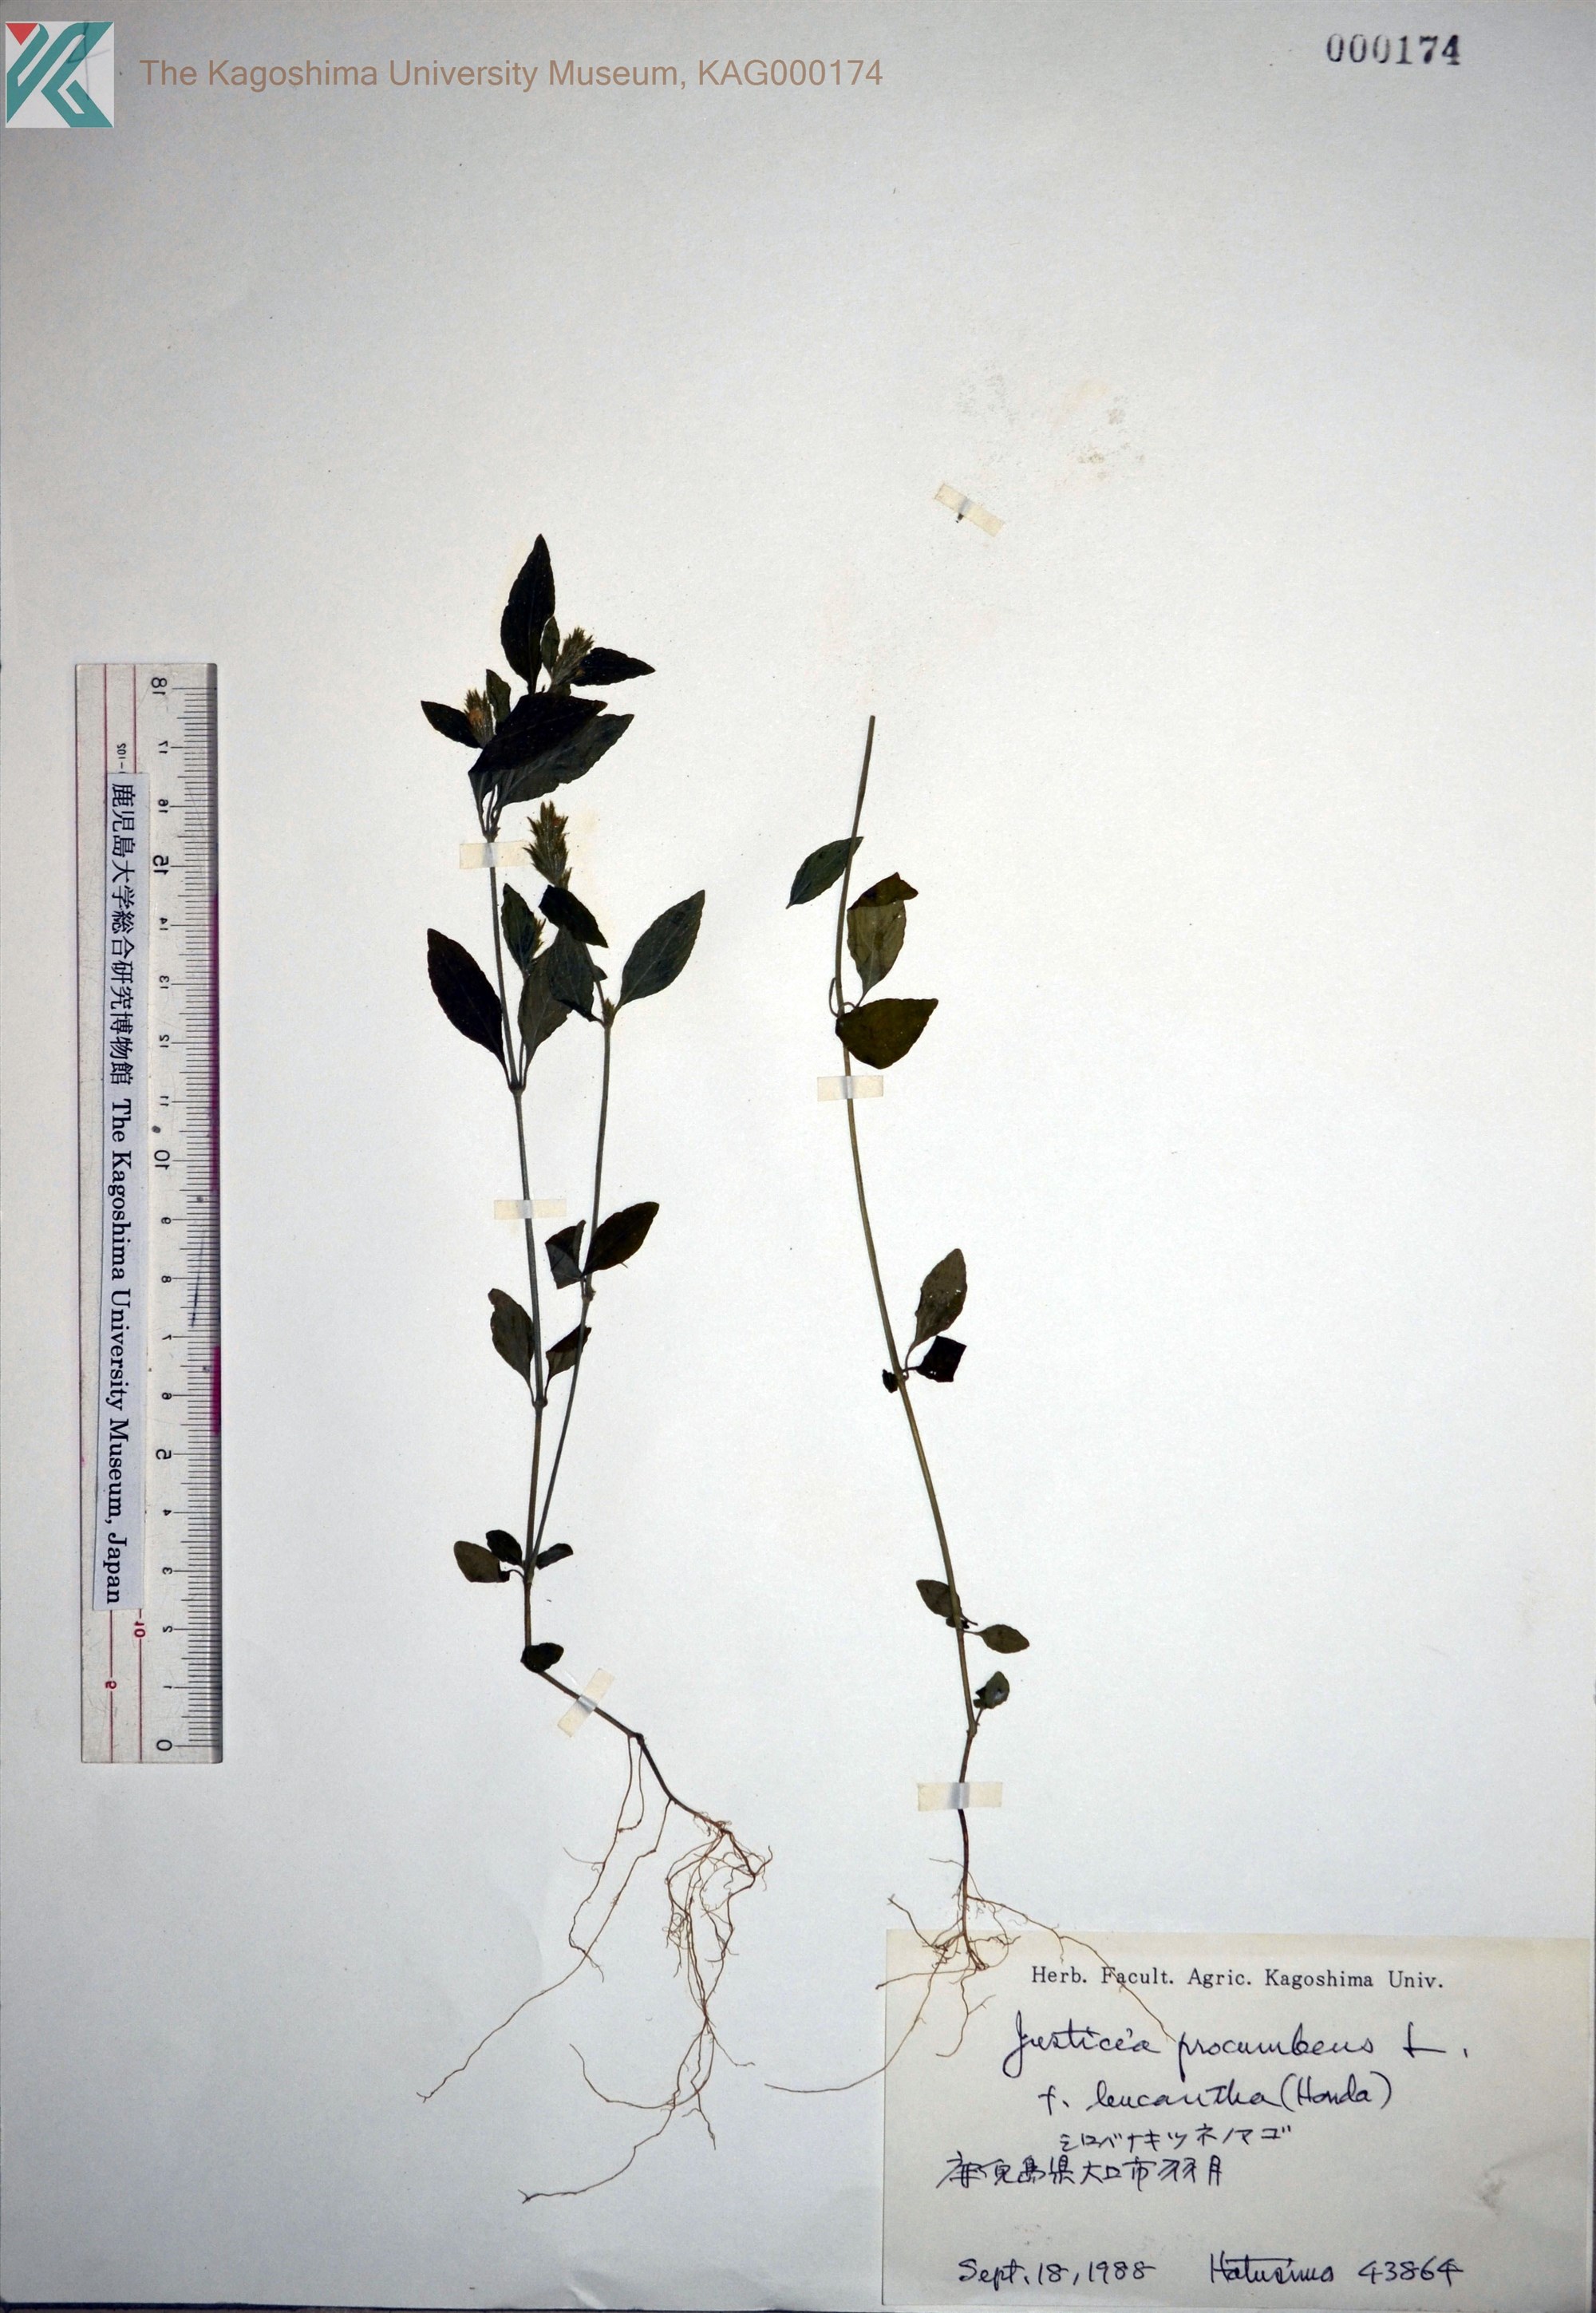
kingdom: Plantae
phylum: Tracheophyta
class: Magnoliopsida
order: Lamiales
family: Acanthaceae
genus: Rostellularia
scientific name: Rostellularia procumbens
